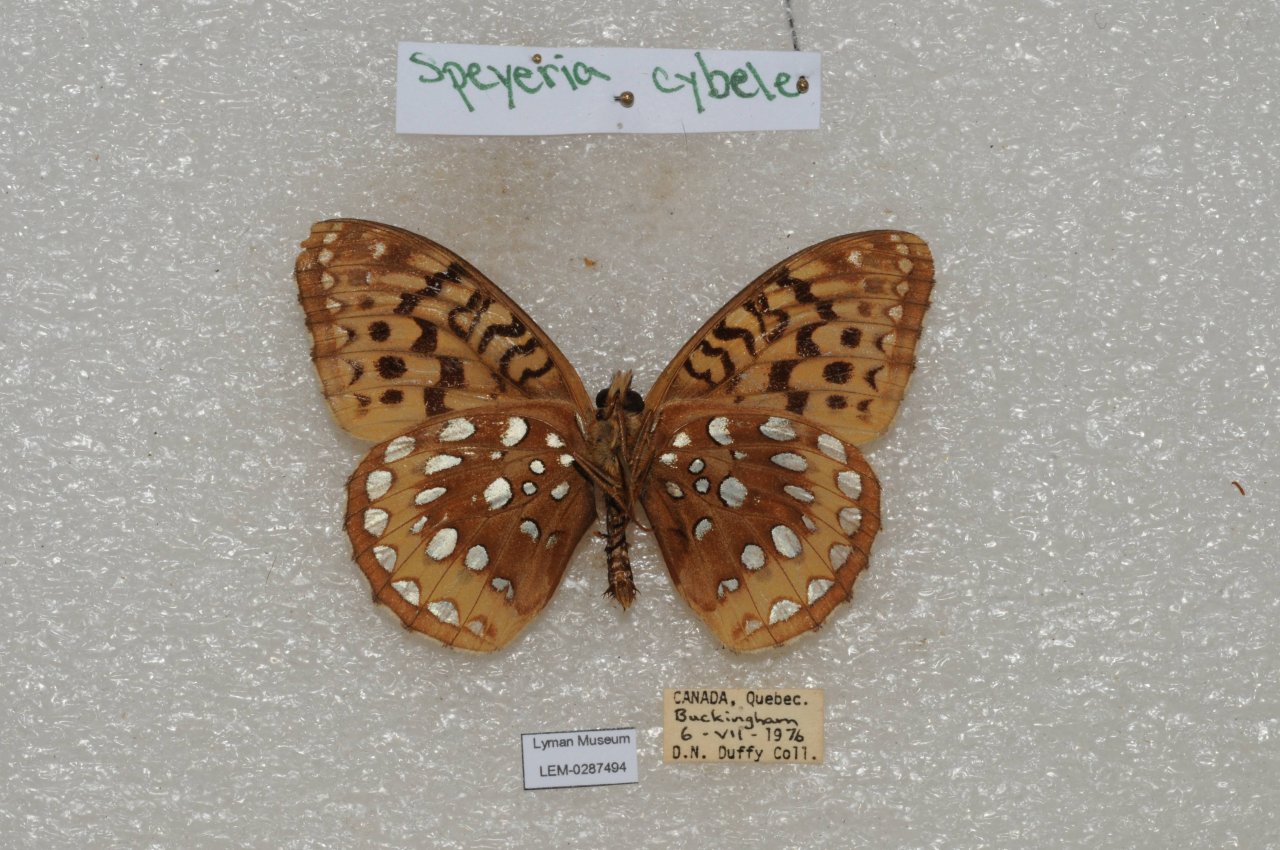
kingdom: Animalia
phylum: Arthropoda
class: Insecta
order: Lepidoptera
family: Nymphalidae
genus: Speyeria
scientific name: Speyeria cybele
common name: Great Spangled Fritillary
